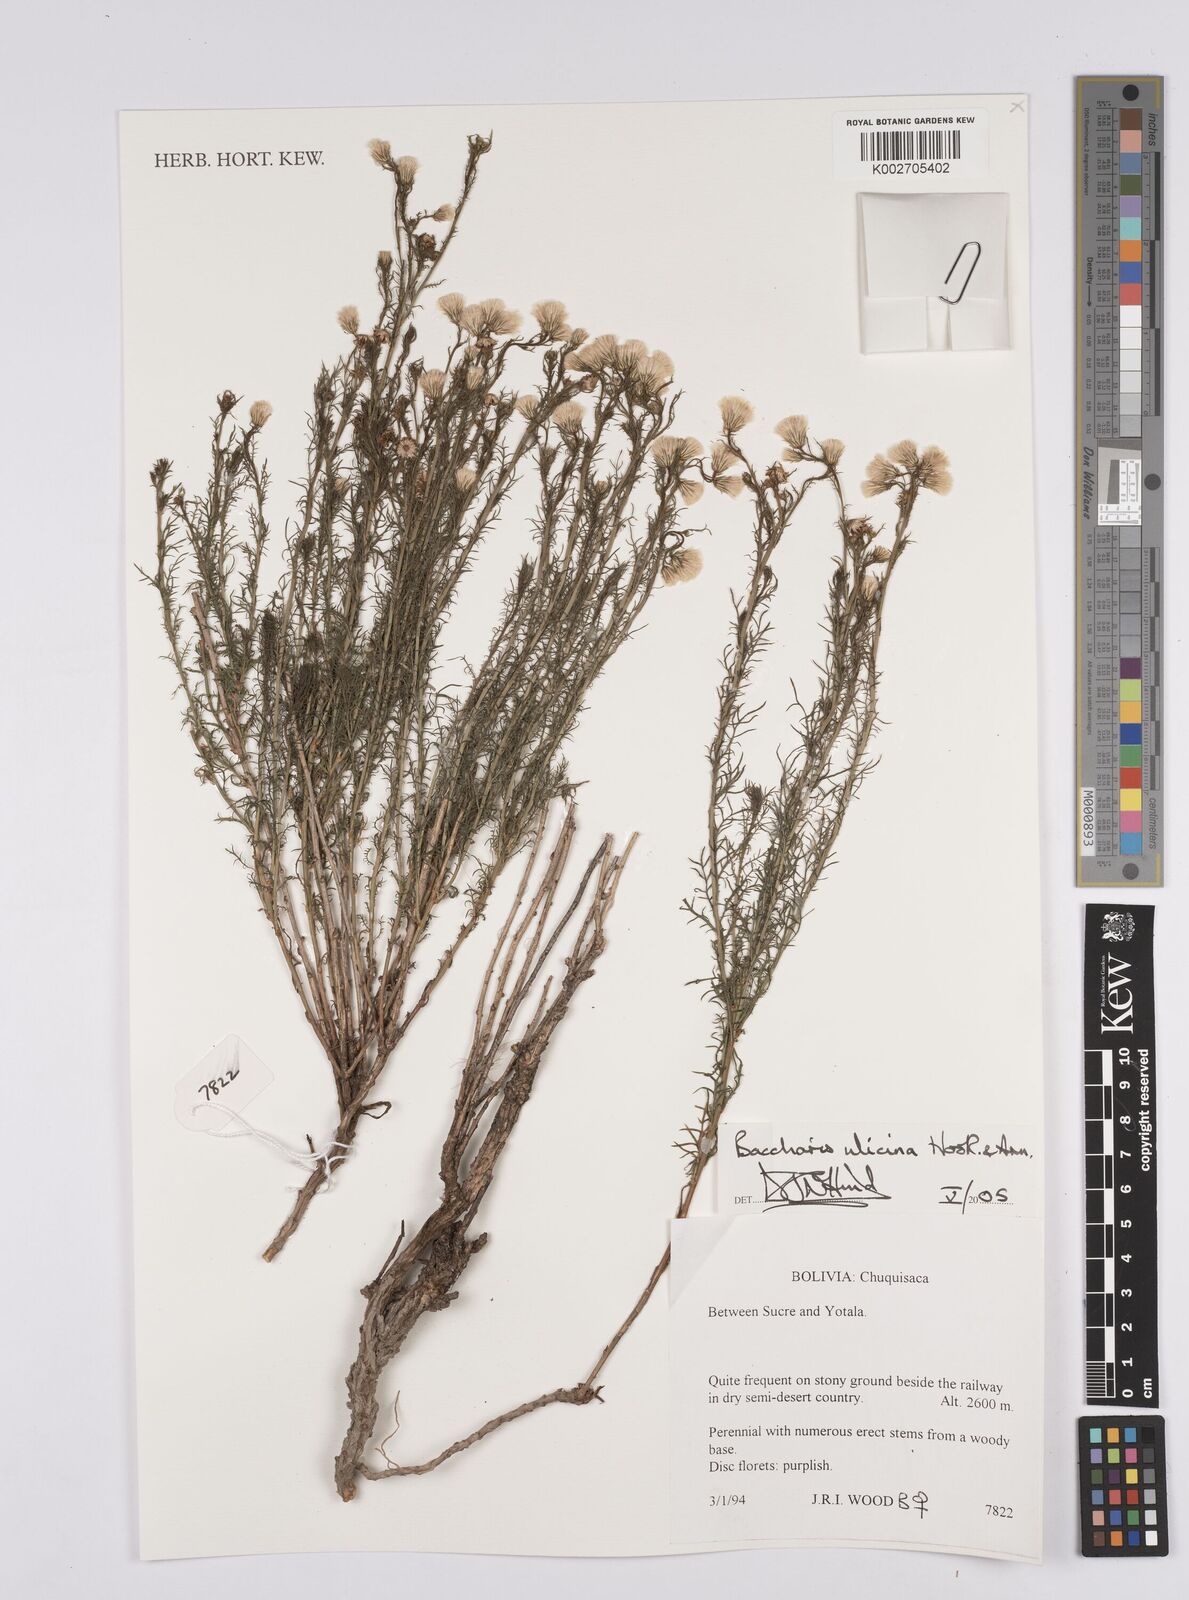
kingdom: Plantae
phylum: Tracheophyta
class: Magnoliopsida
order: Asterales
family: Asteraceae
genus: Baccharis
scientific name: Baccharis ulicina
